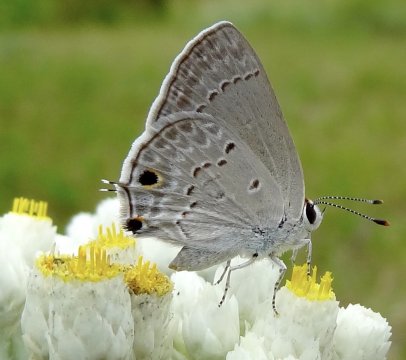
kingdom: Animalia
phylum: Arthropoda
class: Insecta
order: Lepidoptera
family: Lycaenidae
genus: Callicista
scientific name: Callicista columella
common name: Mallow Scrub-Hairstreak
